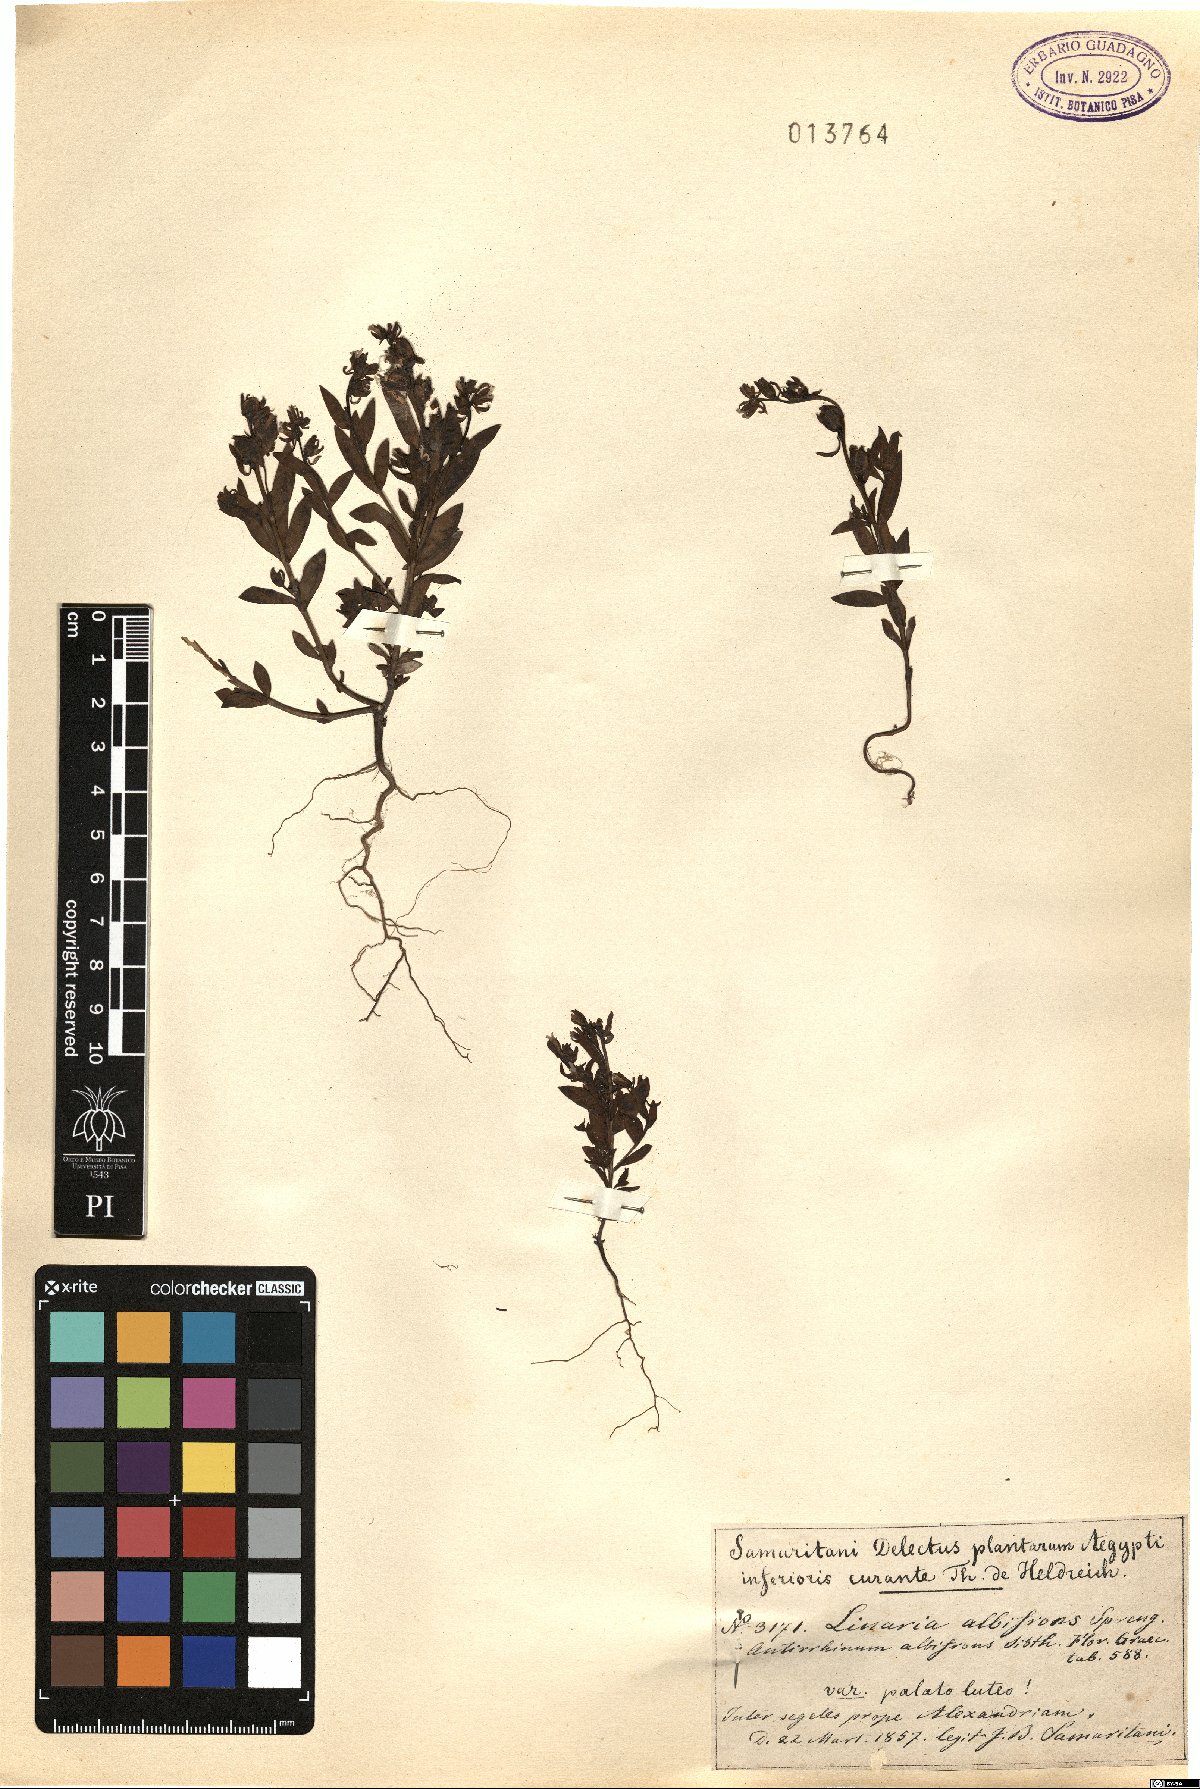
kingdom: Plantae
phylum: Tracheophyta
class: Magnoliopsida
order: Lamiales
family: Plantaginaceae
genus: Linaria
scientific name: Linaria albifrons
